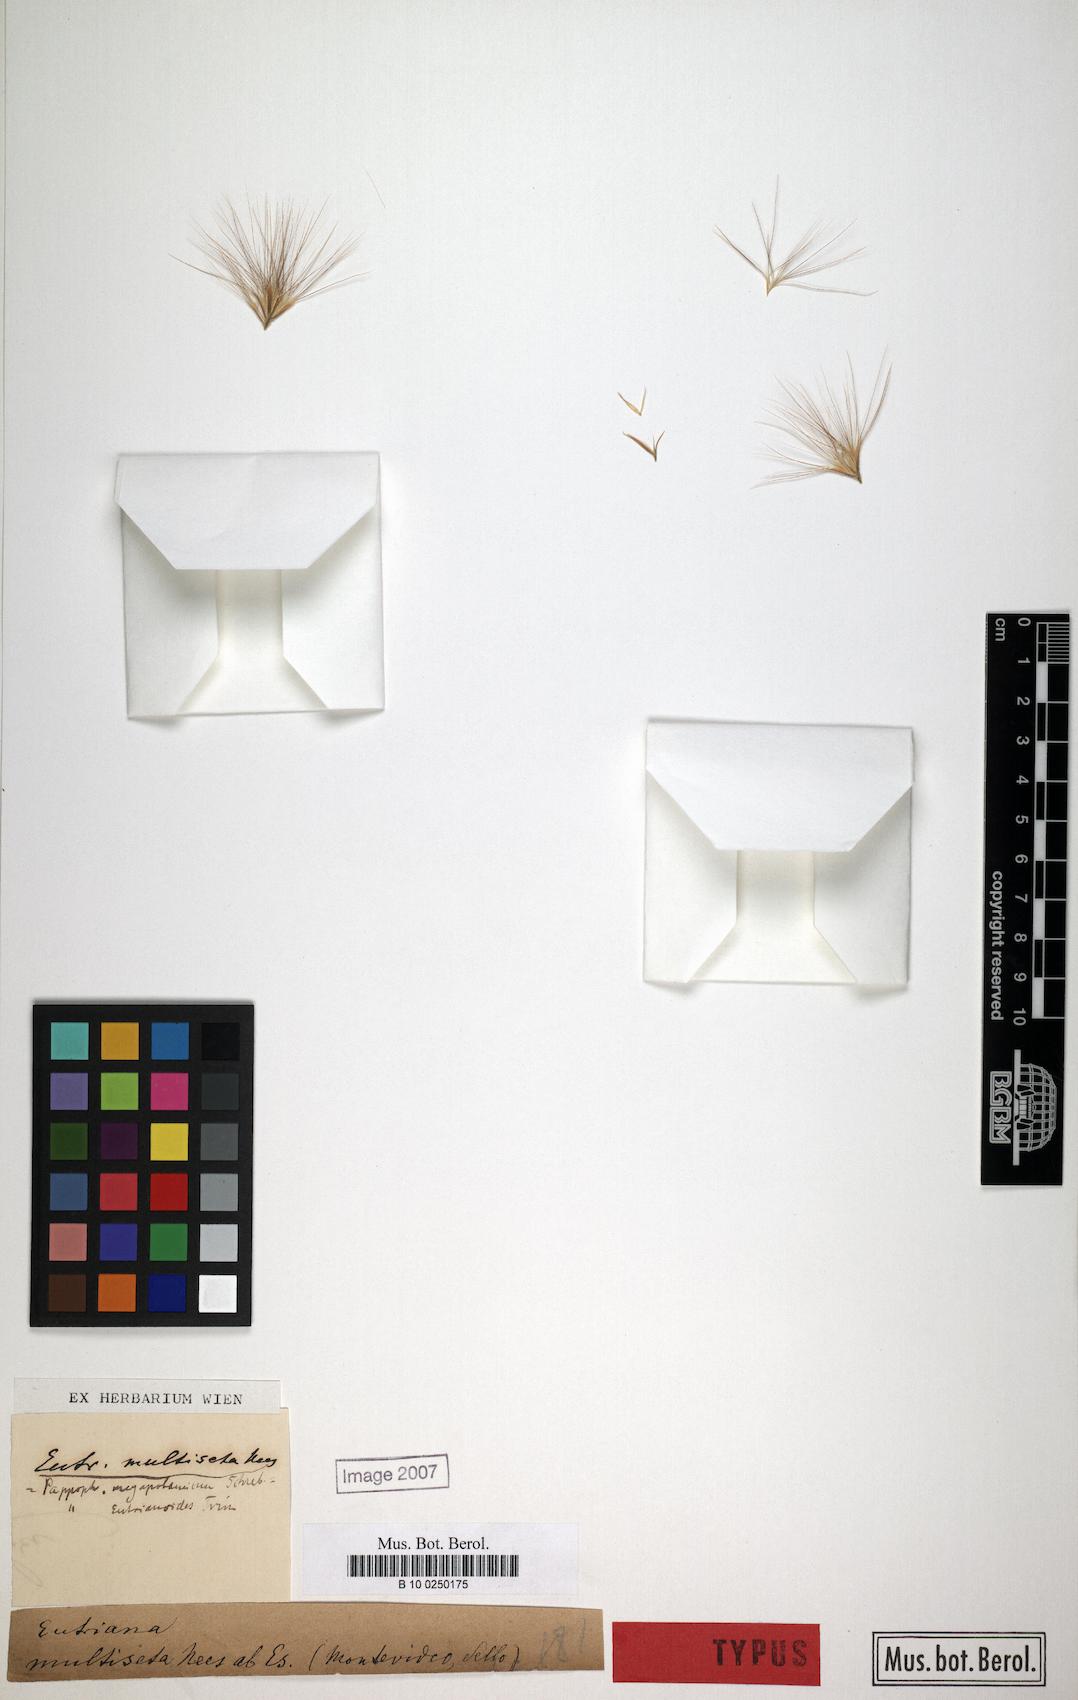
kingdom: Plantae
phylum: Tracheophyta
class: Liliopsida
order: Poales
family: Poaceae
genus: Bouteloua
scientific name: Bouteloua megapotamica
